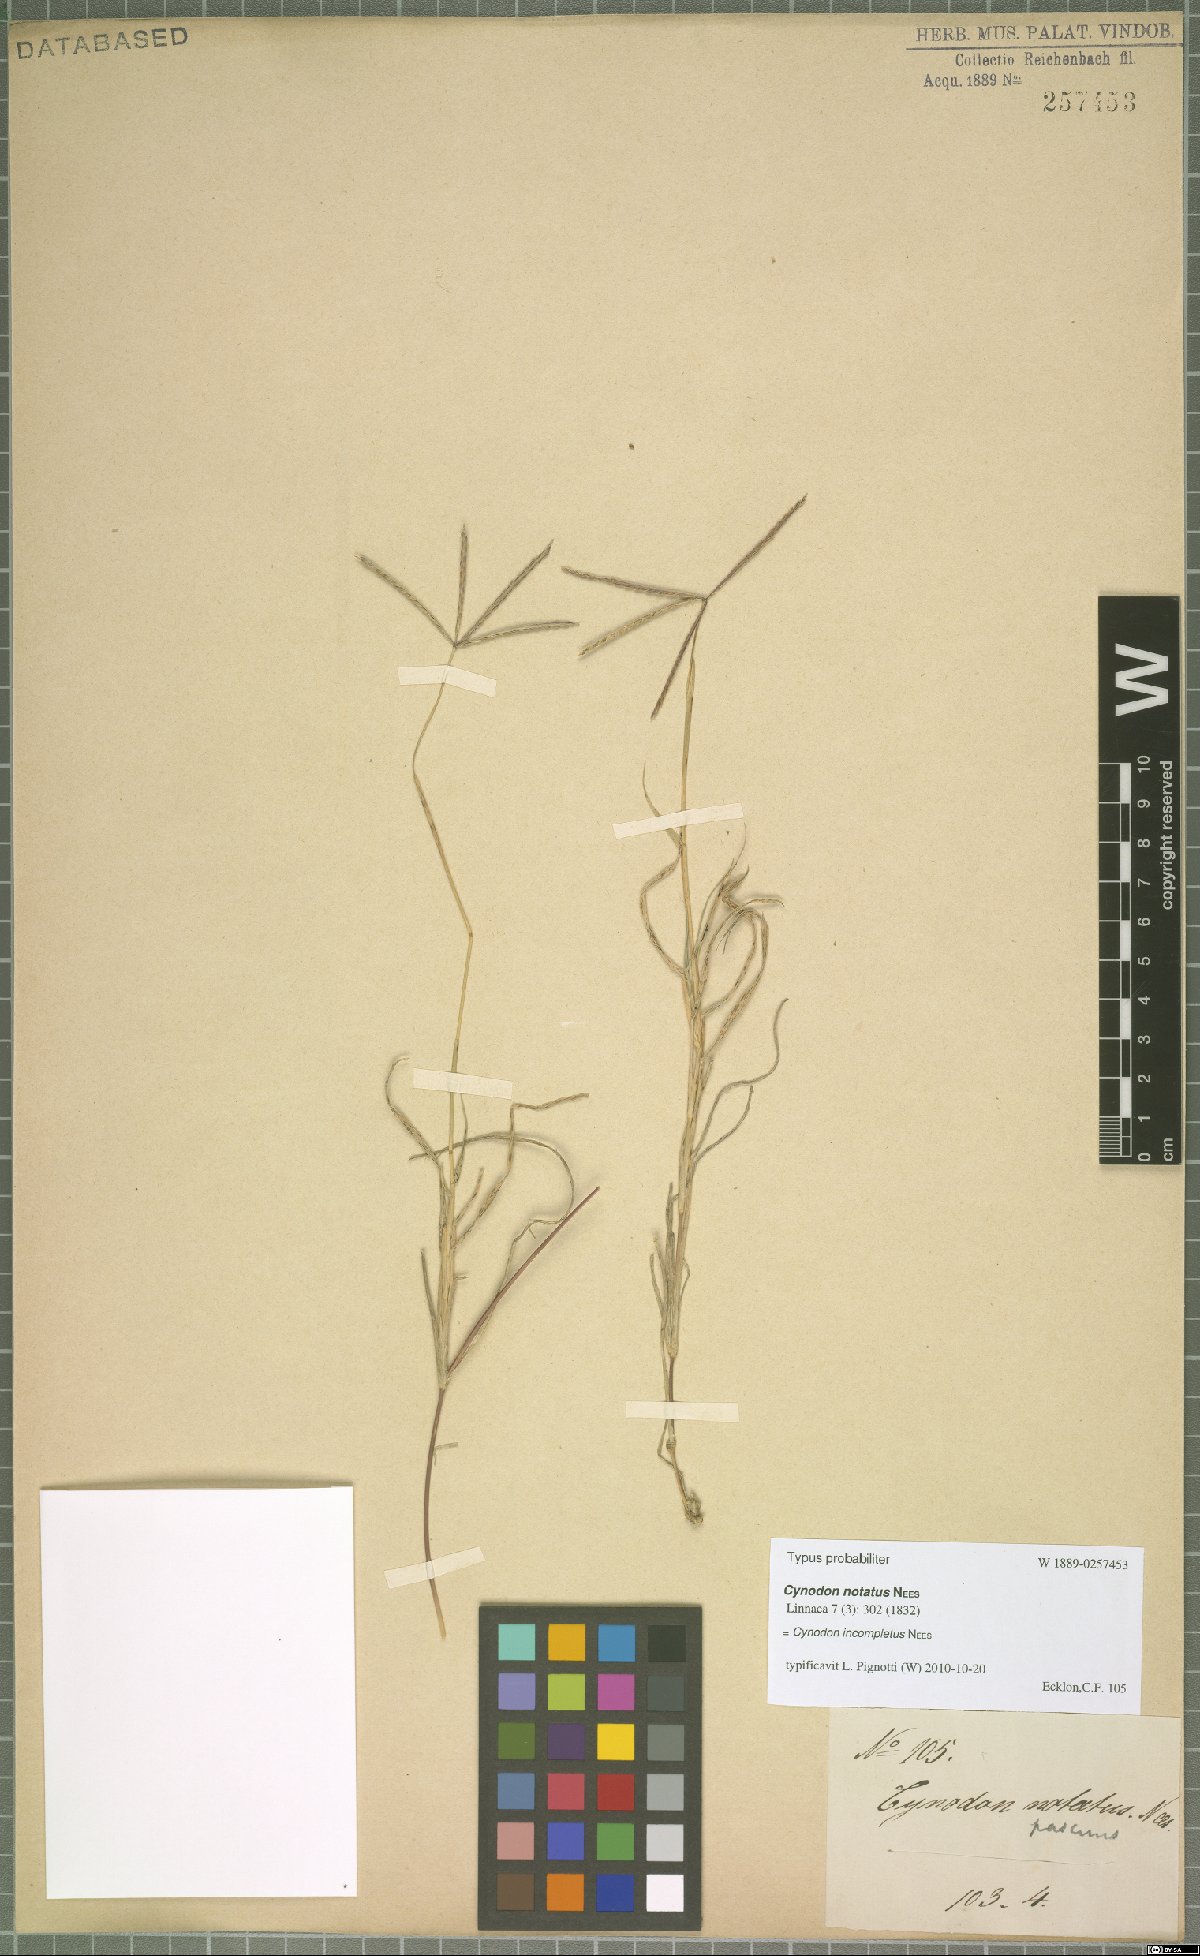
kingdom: Plantae
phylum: Tracheophyta
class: Liliopsida
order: Poales
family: Poaceae
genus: Cynodon
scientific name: Cynodon incompletus
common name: African bermuda-grass
